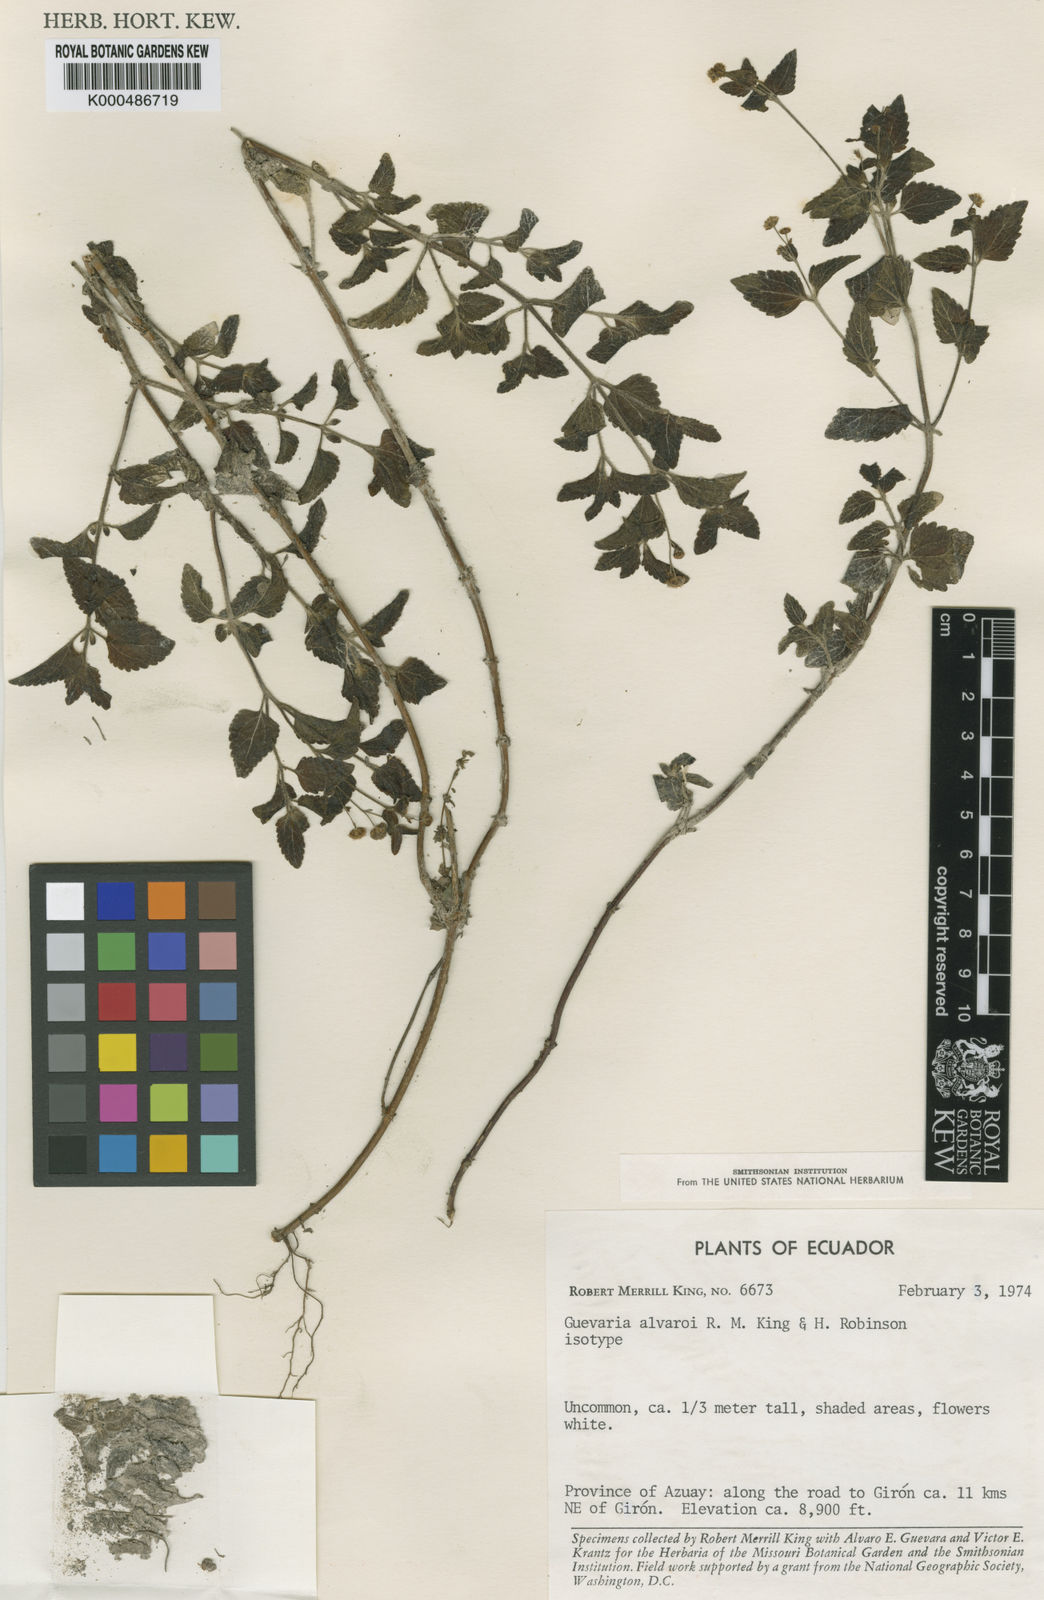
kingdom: Plantae
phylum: Tracheophyta
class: Magnoliopsida
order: Asterales
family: Asteraceae
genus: Guevaria
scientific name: Guevaria alvaroi
